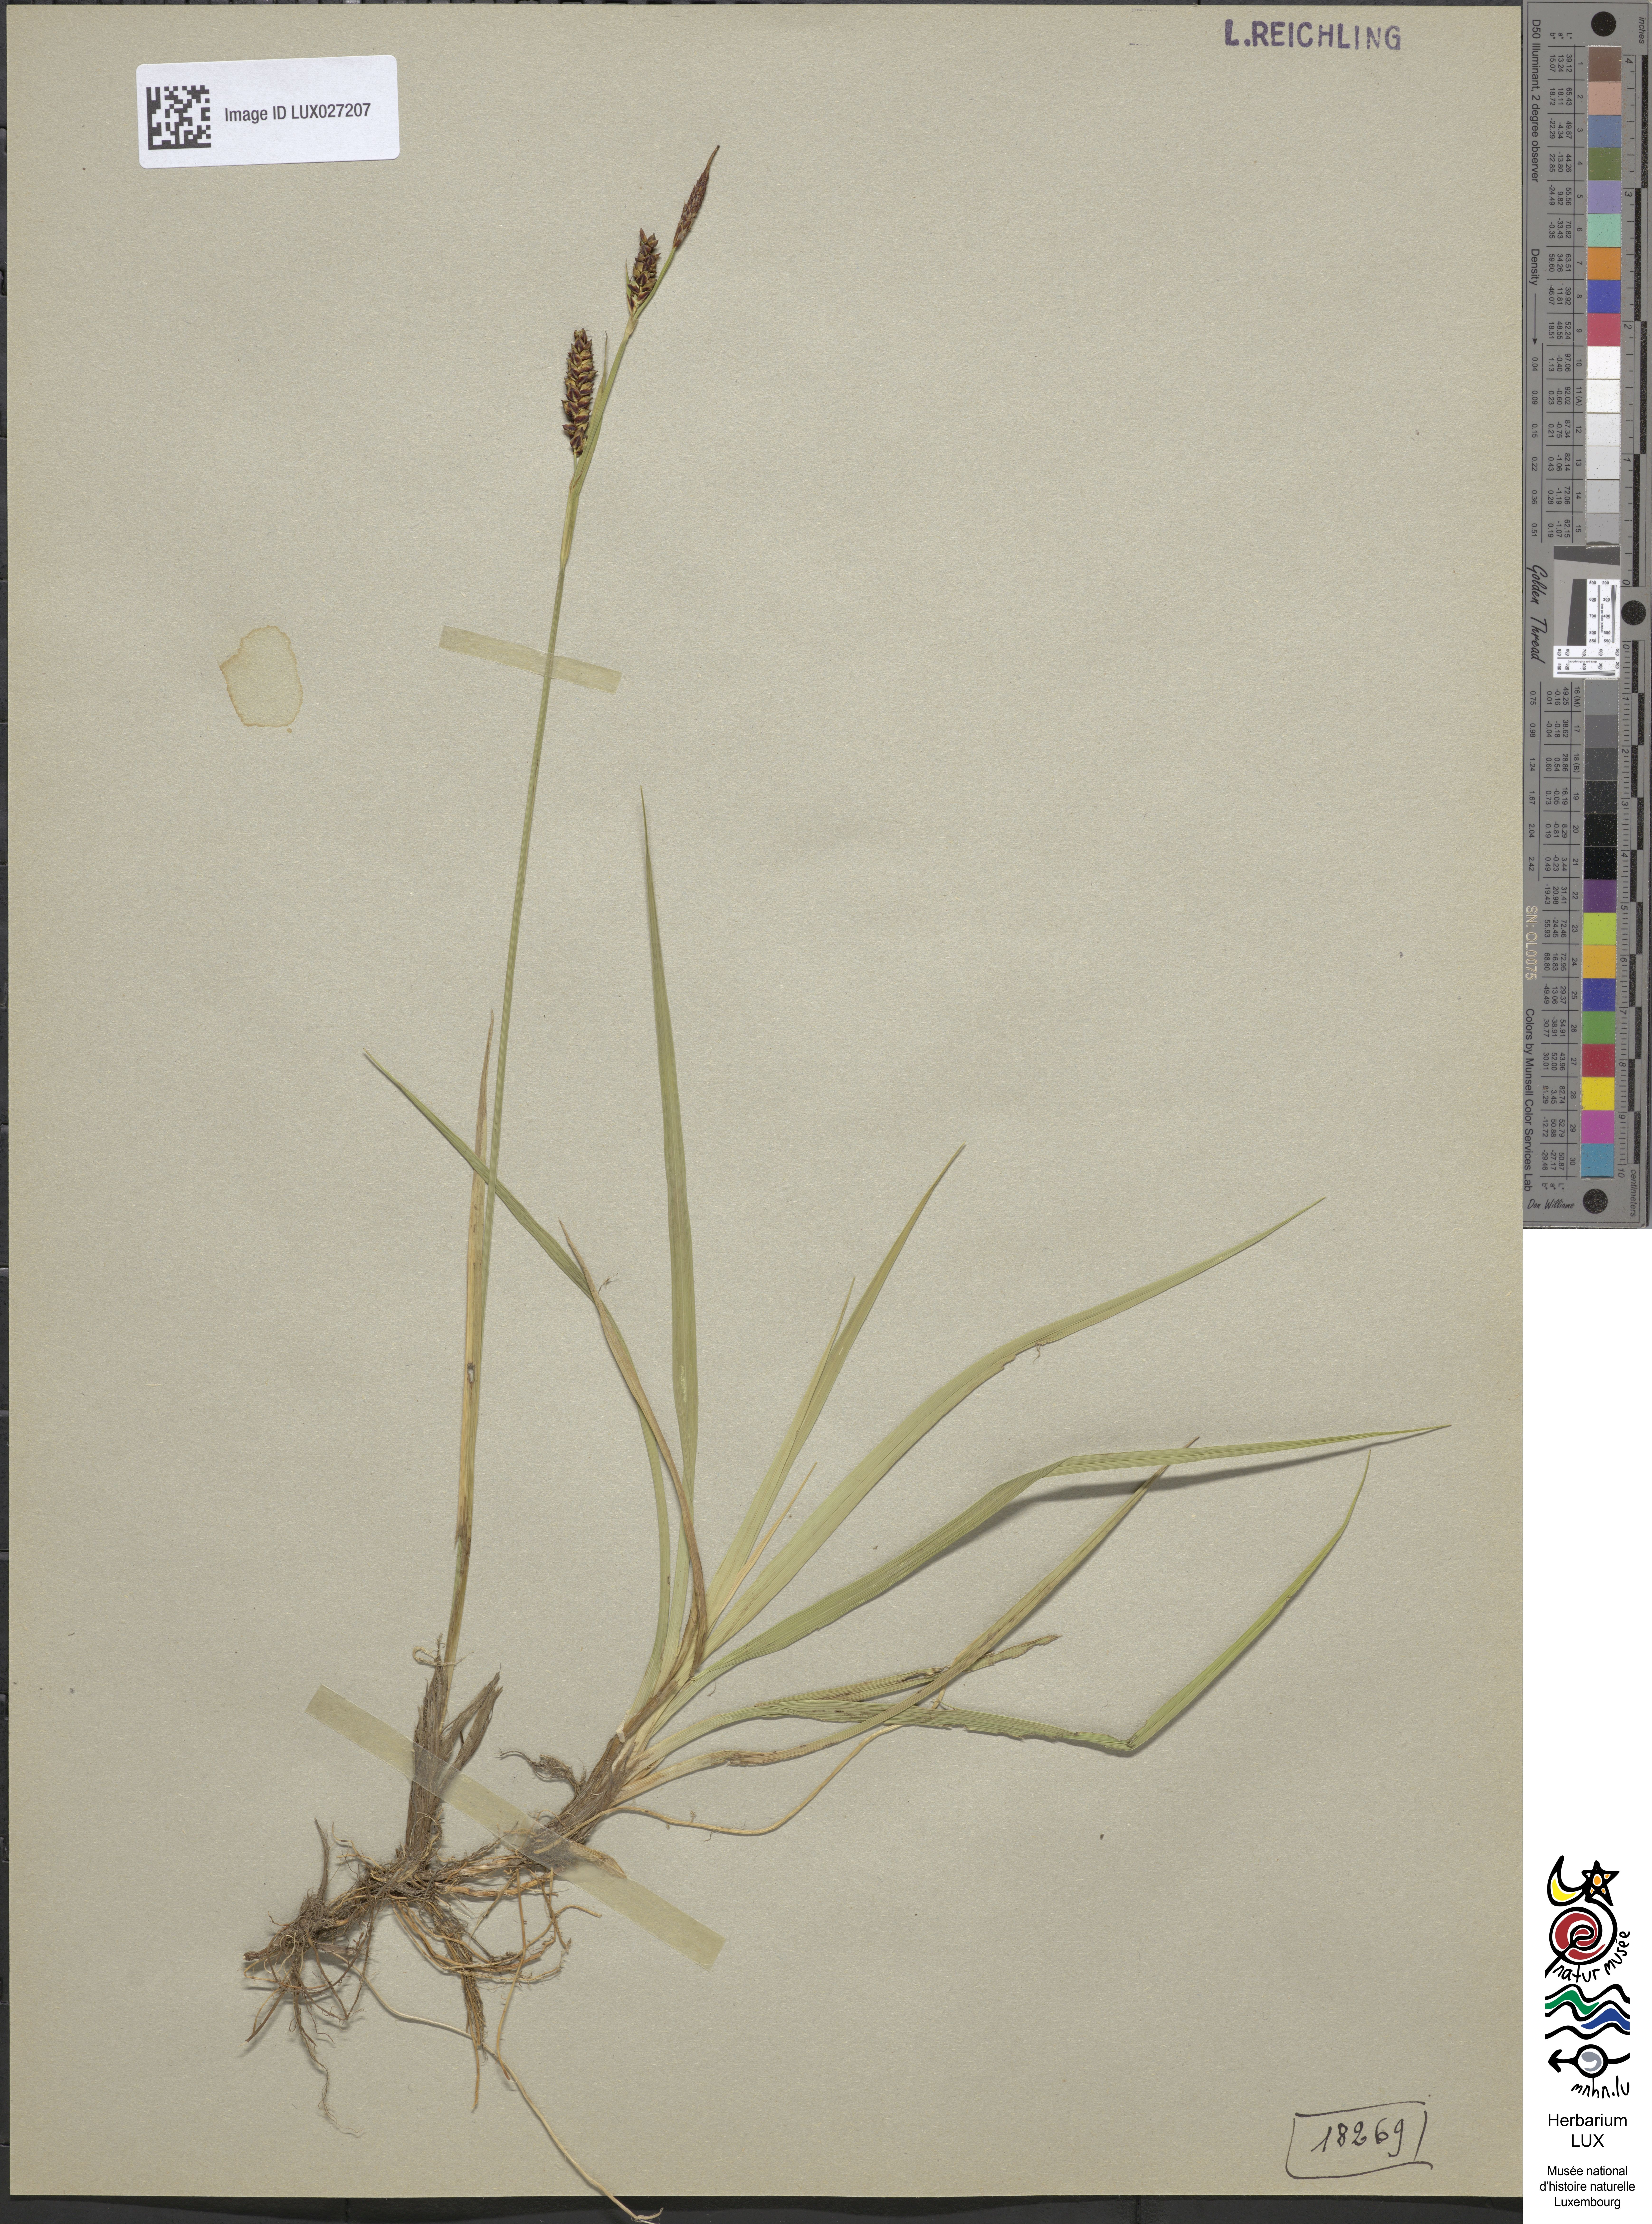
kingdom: Plantae
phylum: Tracheophyta
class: Liliopsida
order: Poales
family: Cyperaceae
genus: Carex
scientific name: Carex panicea
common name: Carnation sedge
